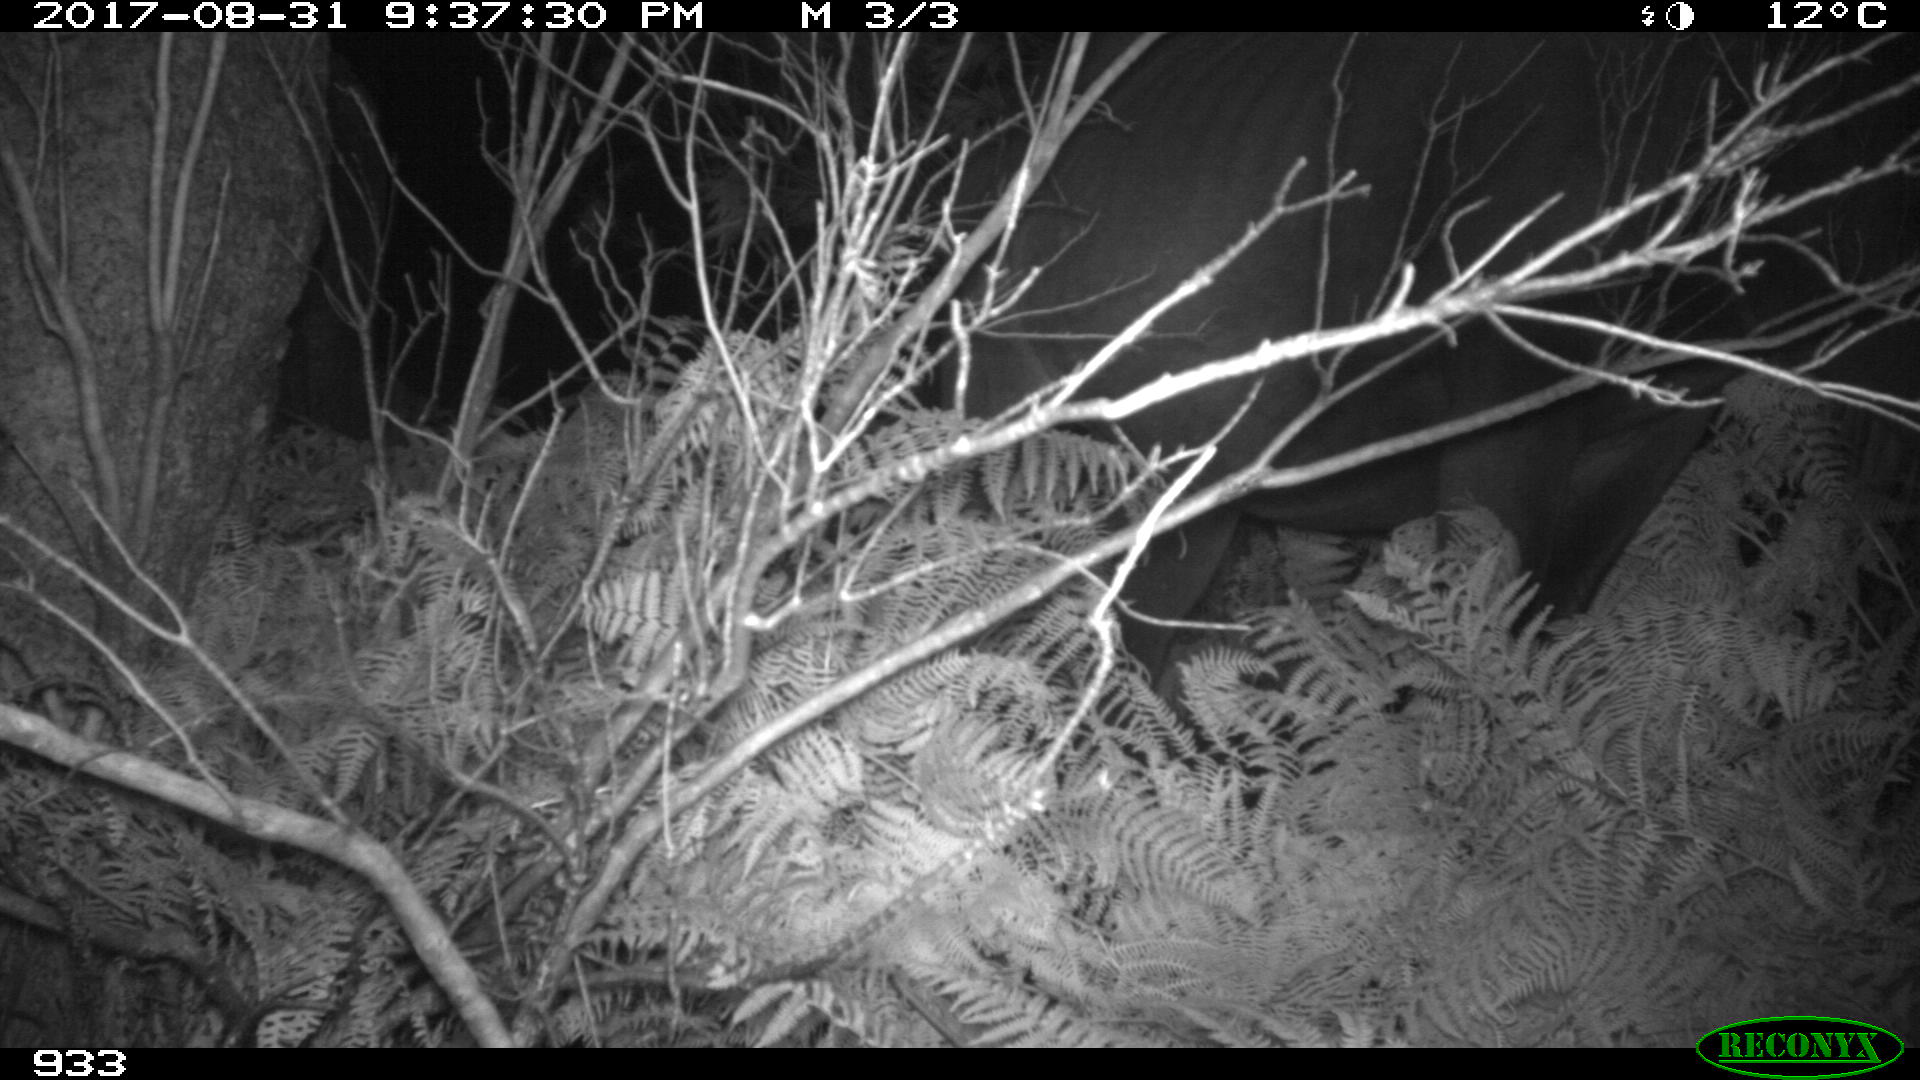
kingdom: Animalia
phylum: Chordata
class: Mammalia
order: Perissodactyla
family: Equidae
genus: Equus
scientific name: Equus caballus
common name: Horse
